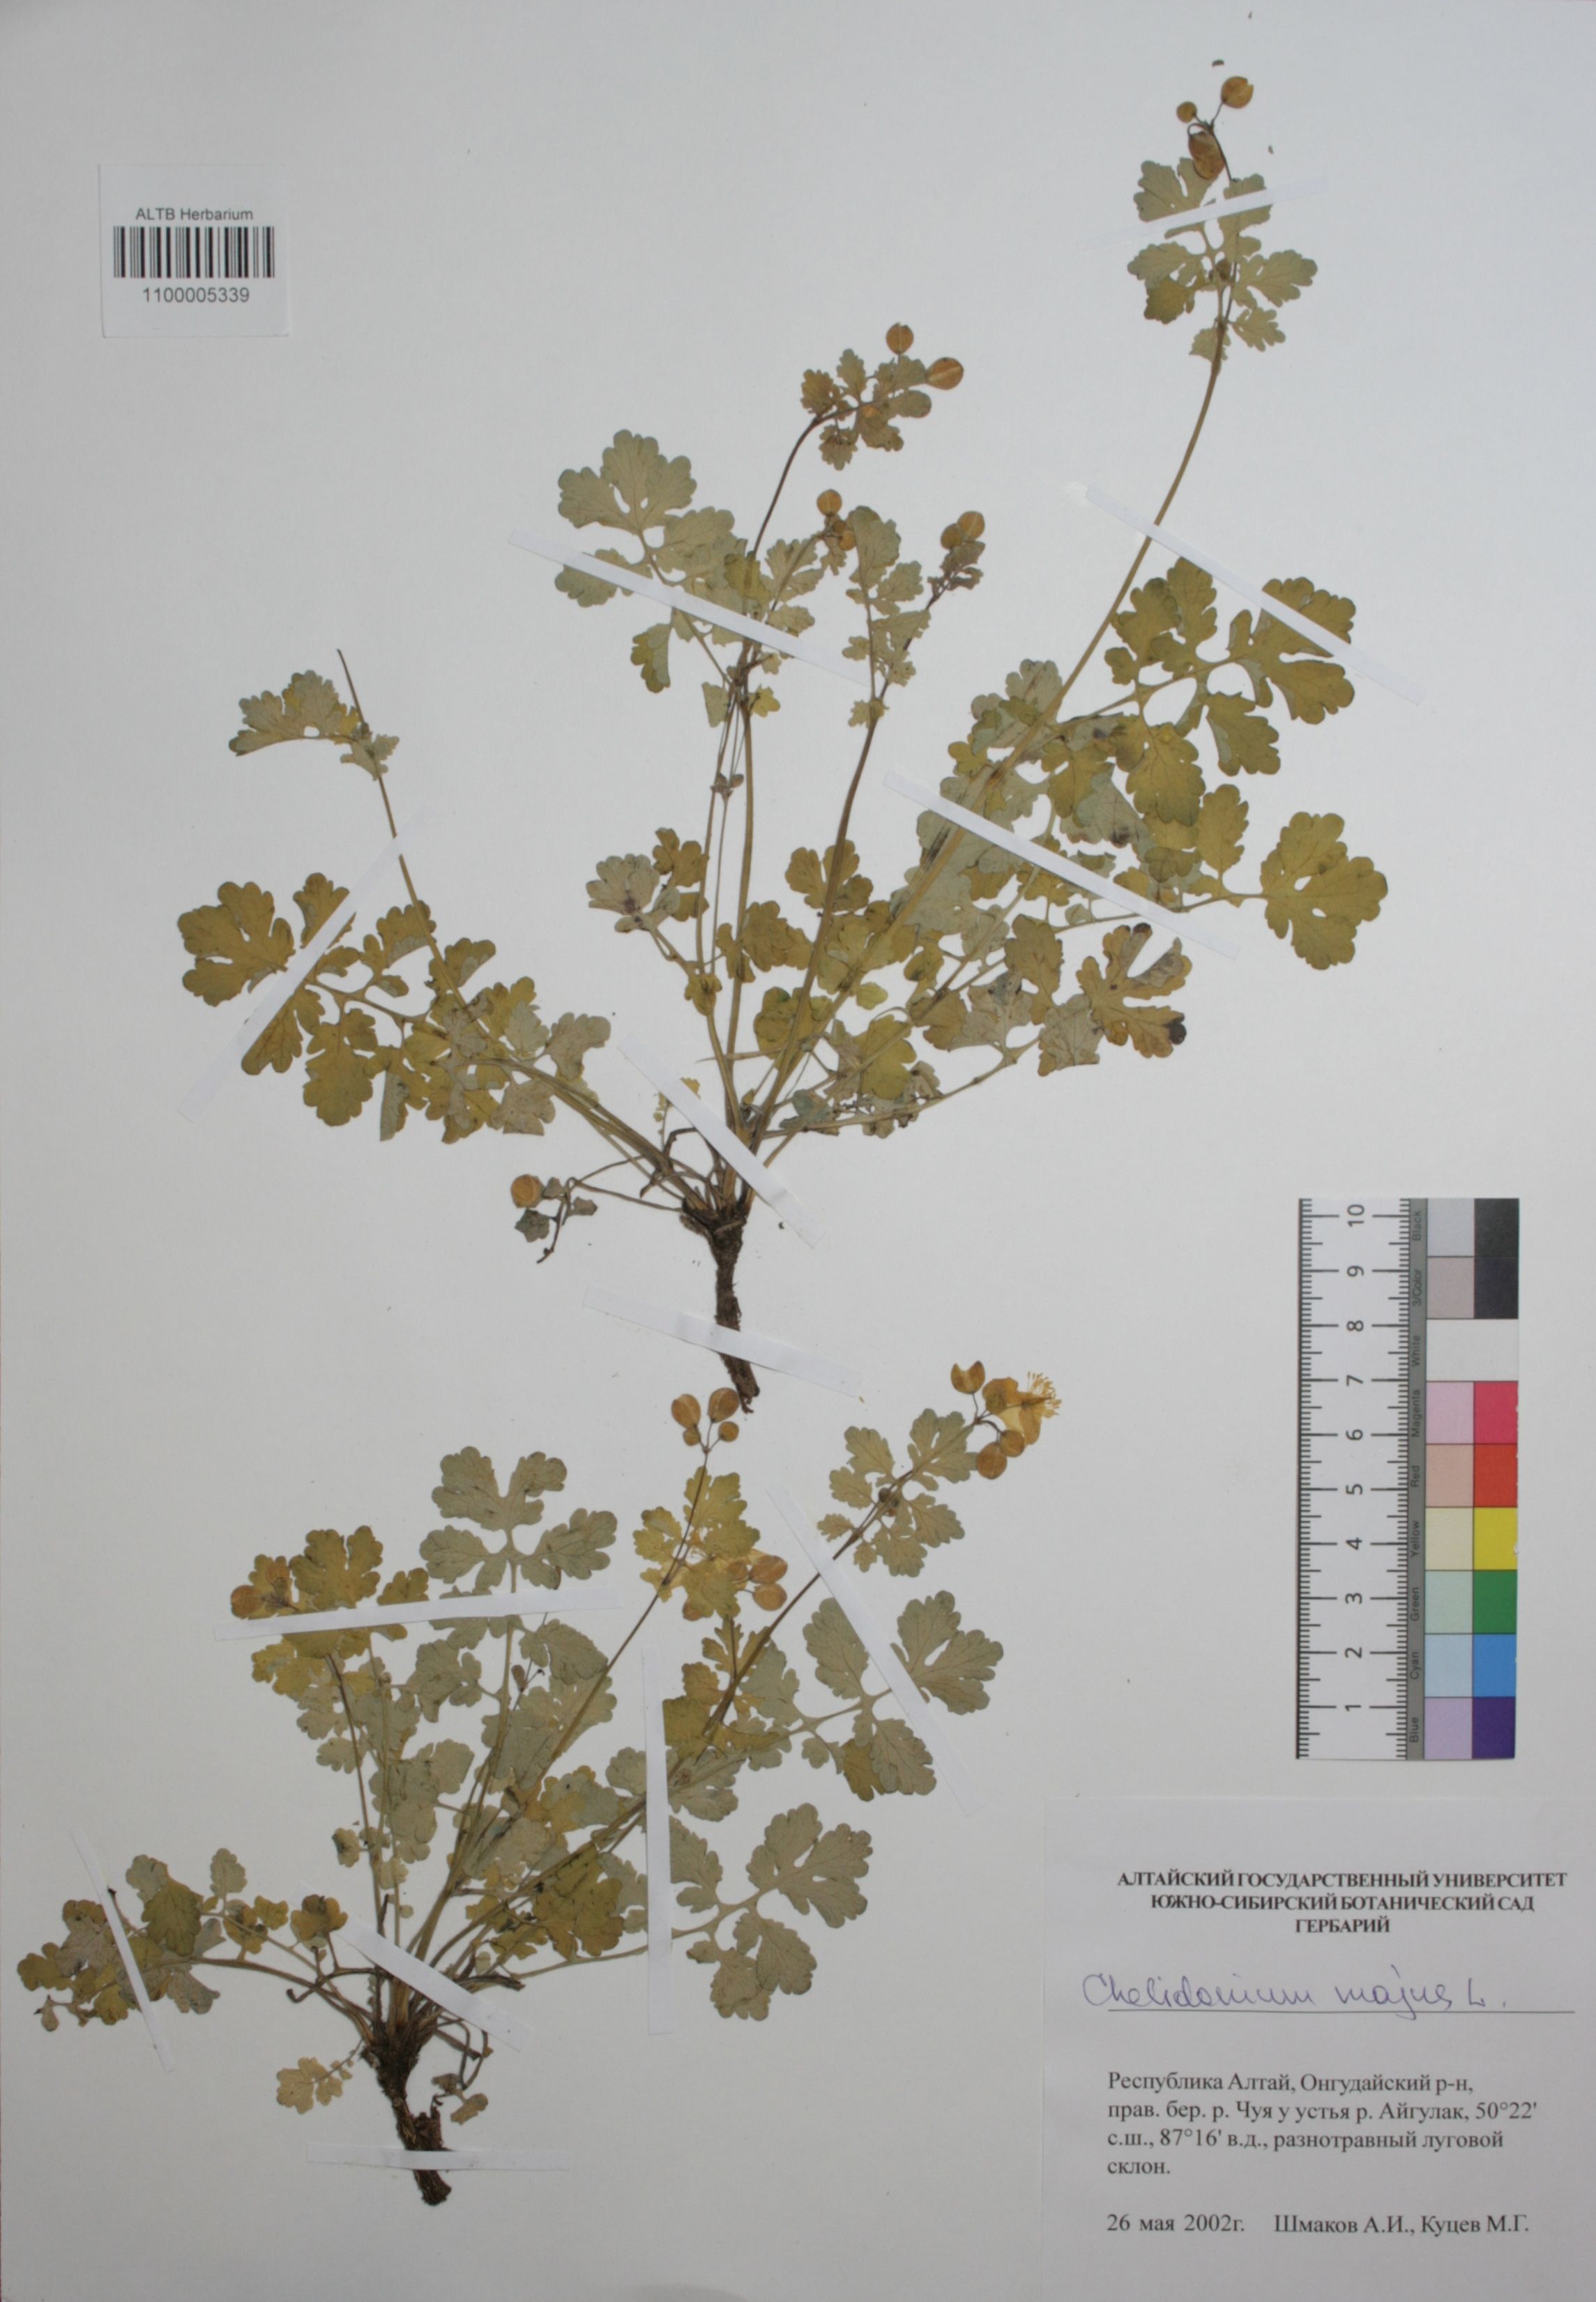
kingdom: Plantae
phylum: Tracheophyta
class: Magnoliopsida
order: Ranunculales
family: Papaveraceae
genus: Chelidonium
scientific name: Chelidonium majus
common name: Greater celandine
